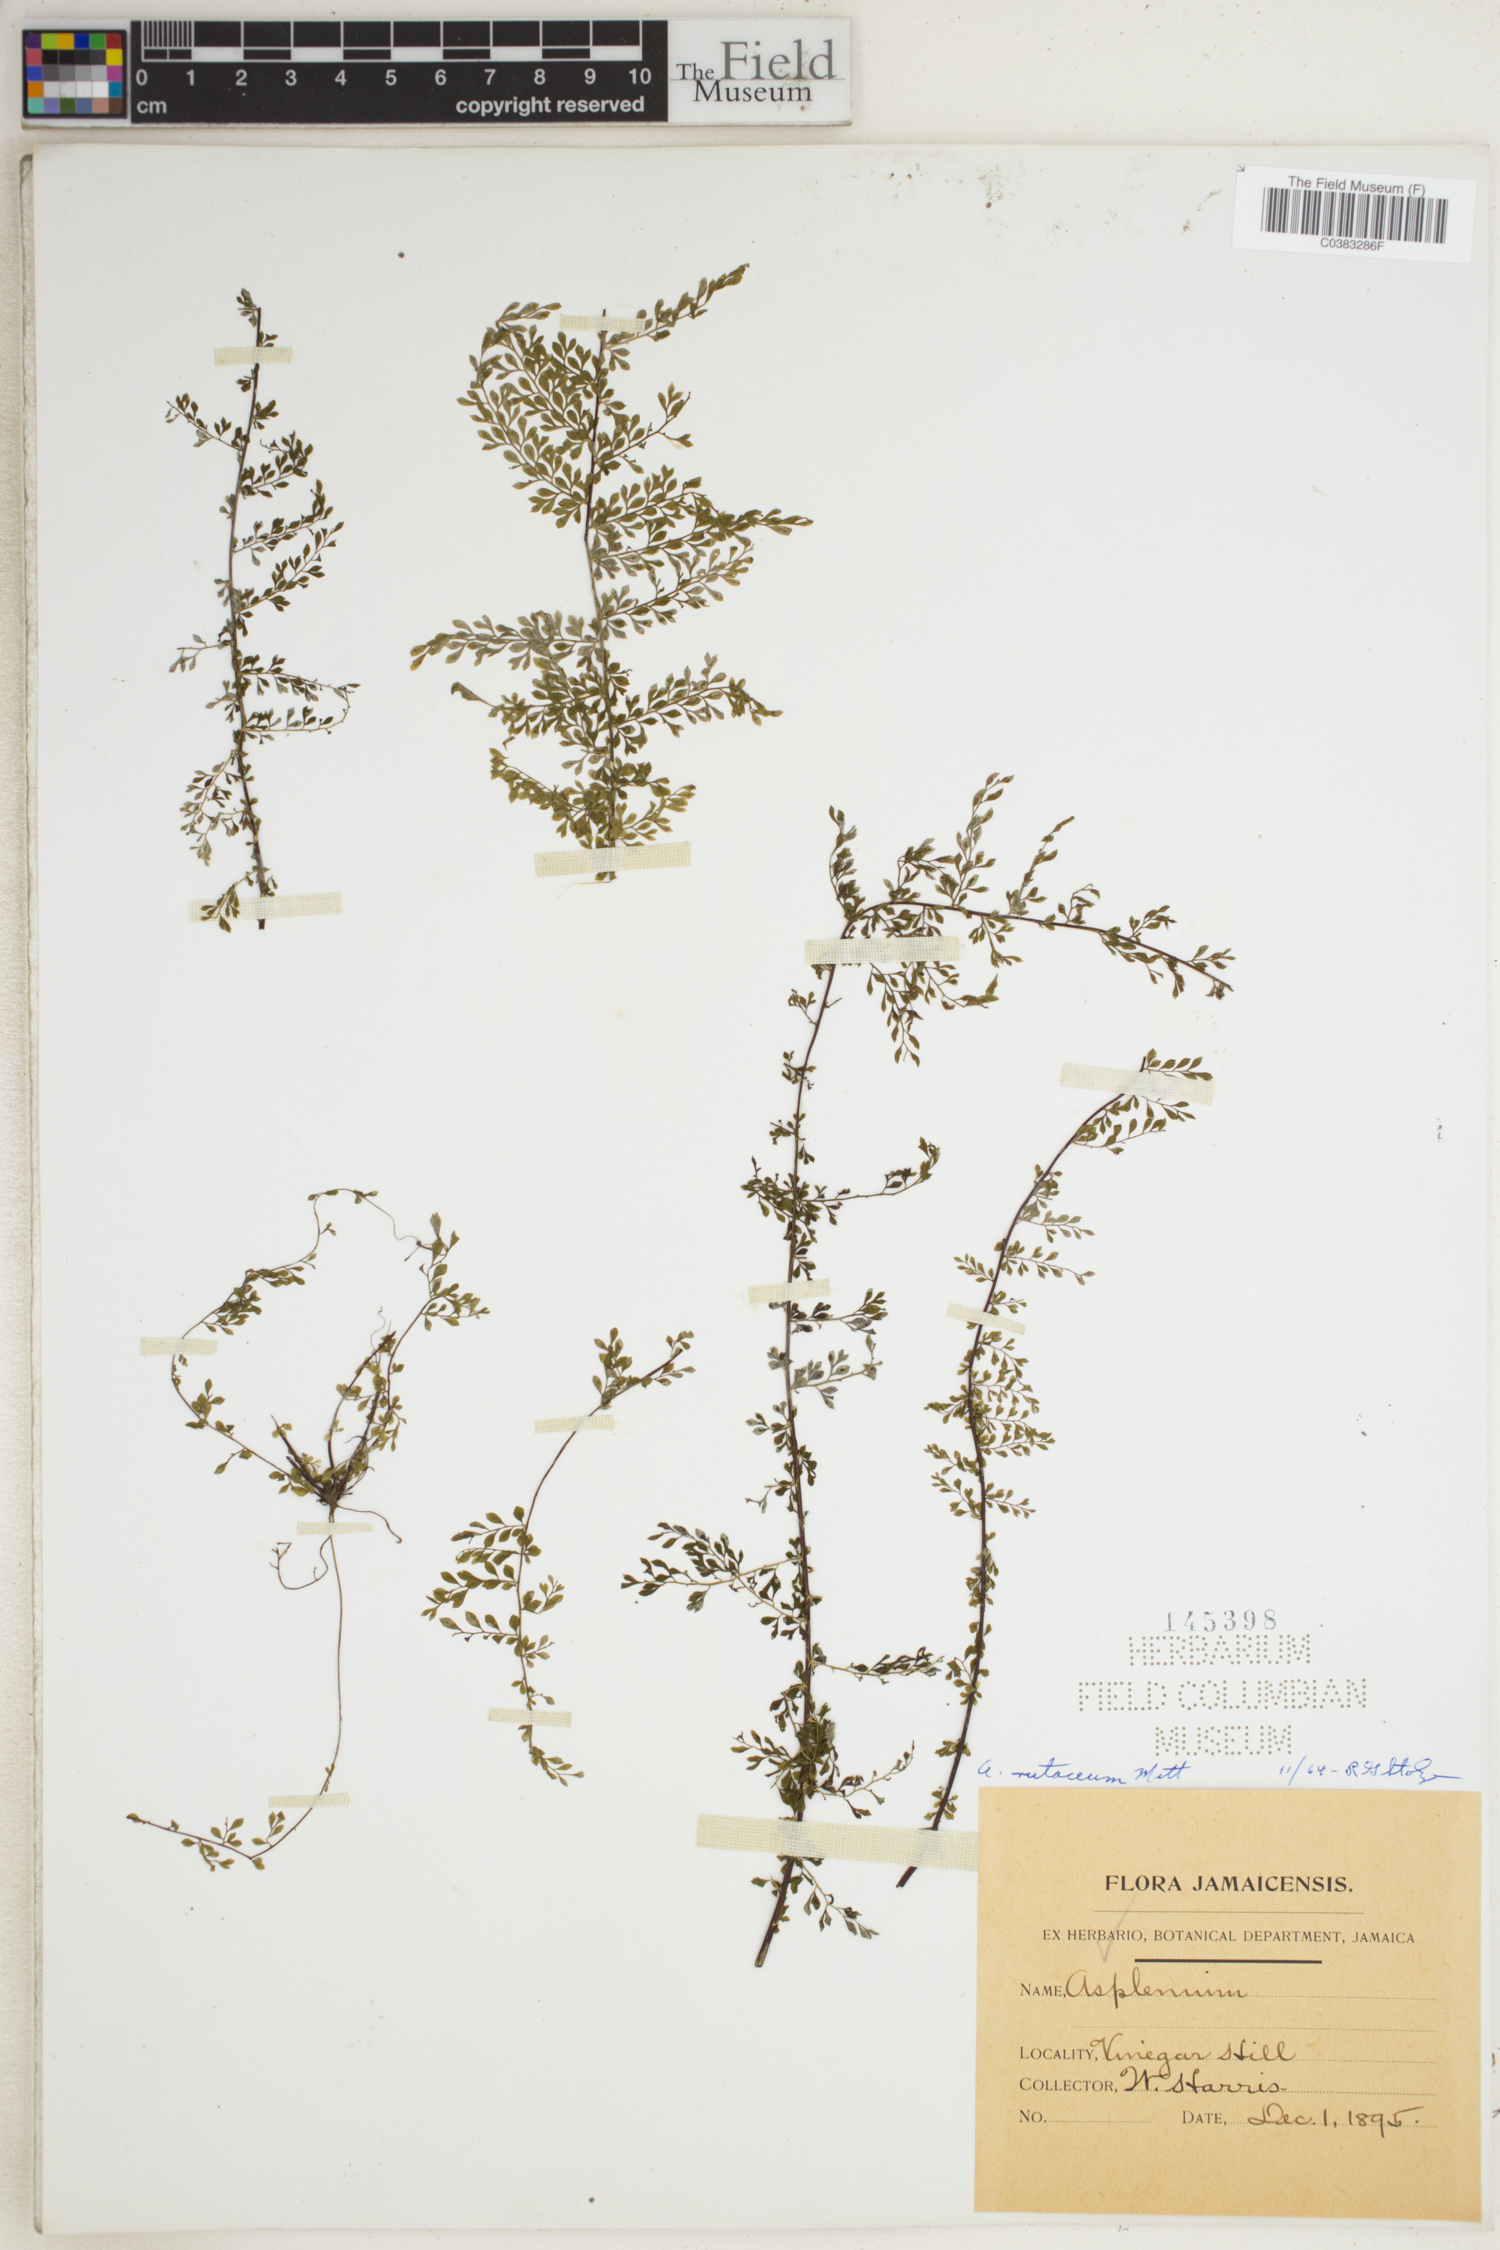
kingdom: Plantae
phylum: Tracheophyta
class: Polypodiopsida
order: Polypodiales
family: Aspleniaceae
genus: Asplenium
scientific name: Asplenium rutaceum
